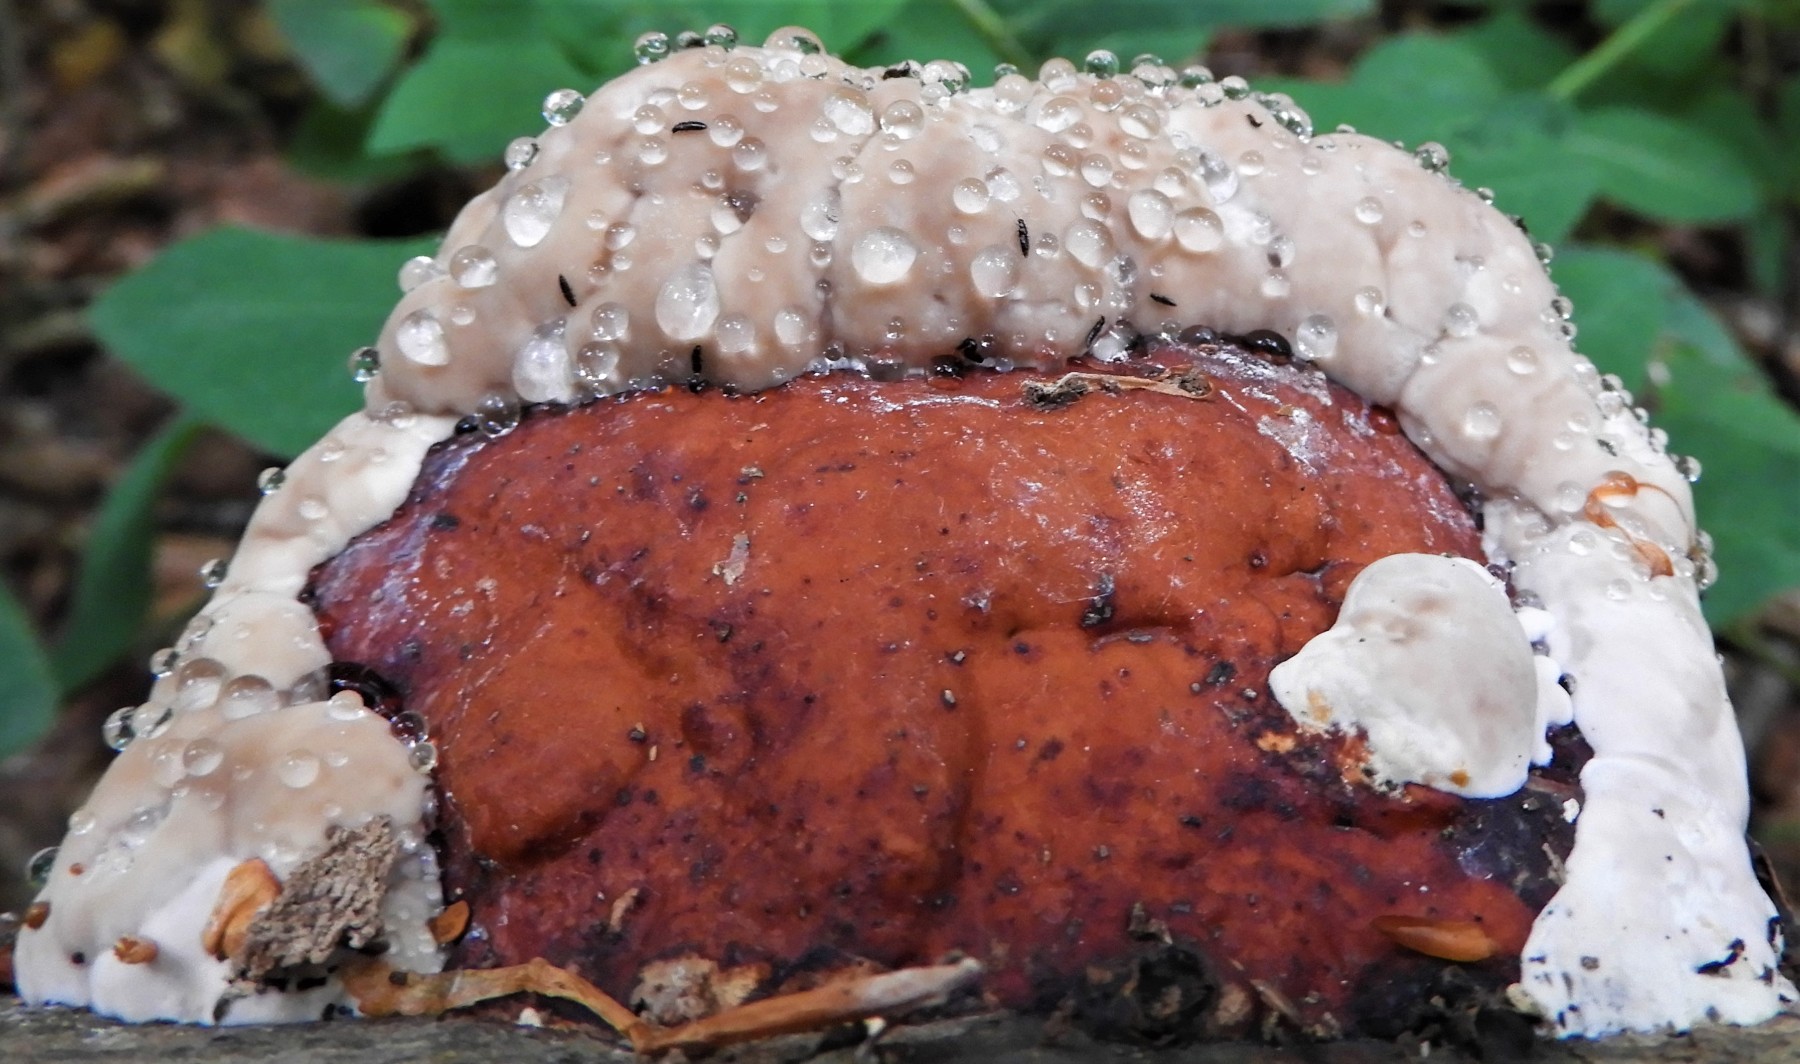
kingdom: Fungi
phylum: Basidiomycota
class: Agaricomycetes
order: Polyporales
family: Fomitopsidaceae
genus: Fomitopsis
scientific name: Fomitopsis pinicola
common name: randbæltet hovporesvamp
